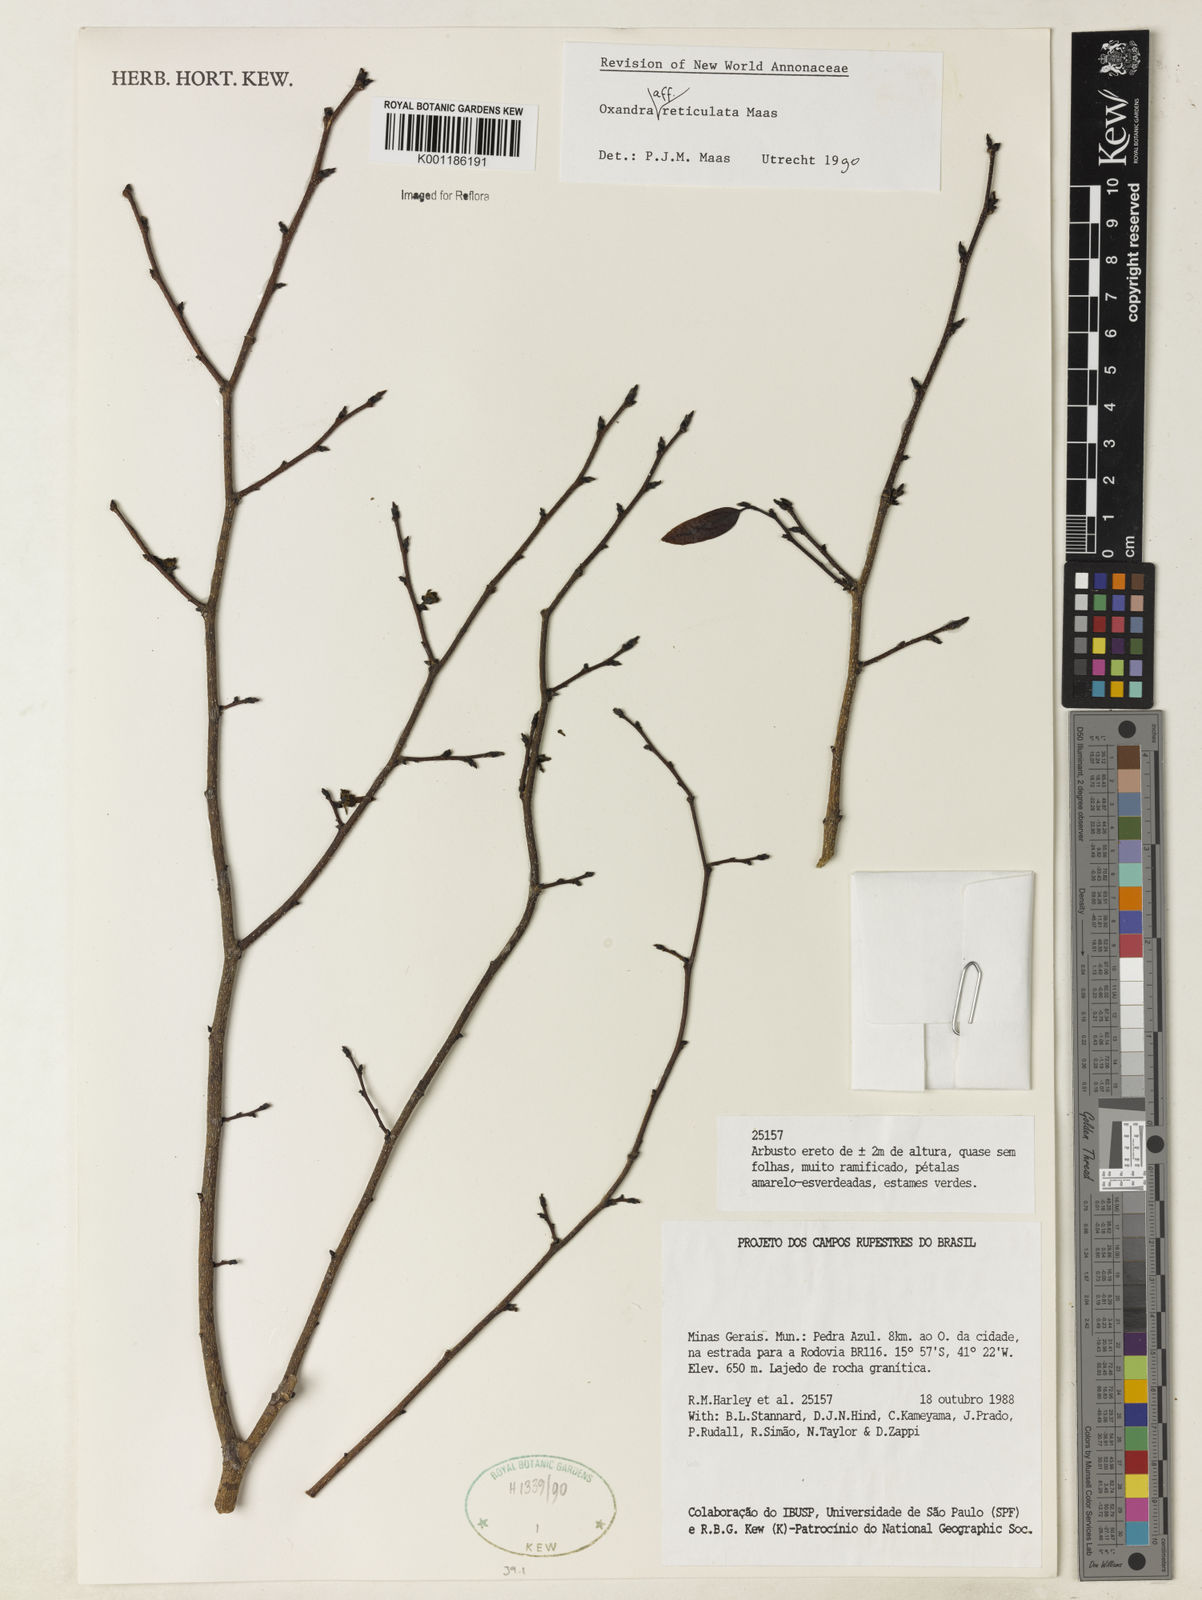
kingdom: Plantae
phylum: Tracheophyta
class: Magnoliopsida
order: Magnoliales
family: Annonaceae
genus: Oxandra
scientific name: Oxandra reticulata
